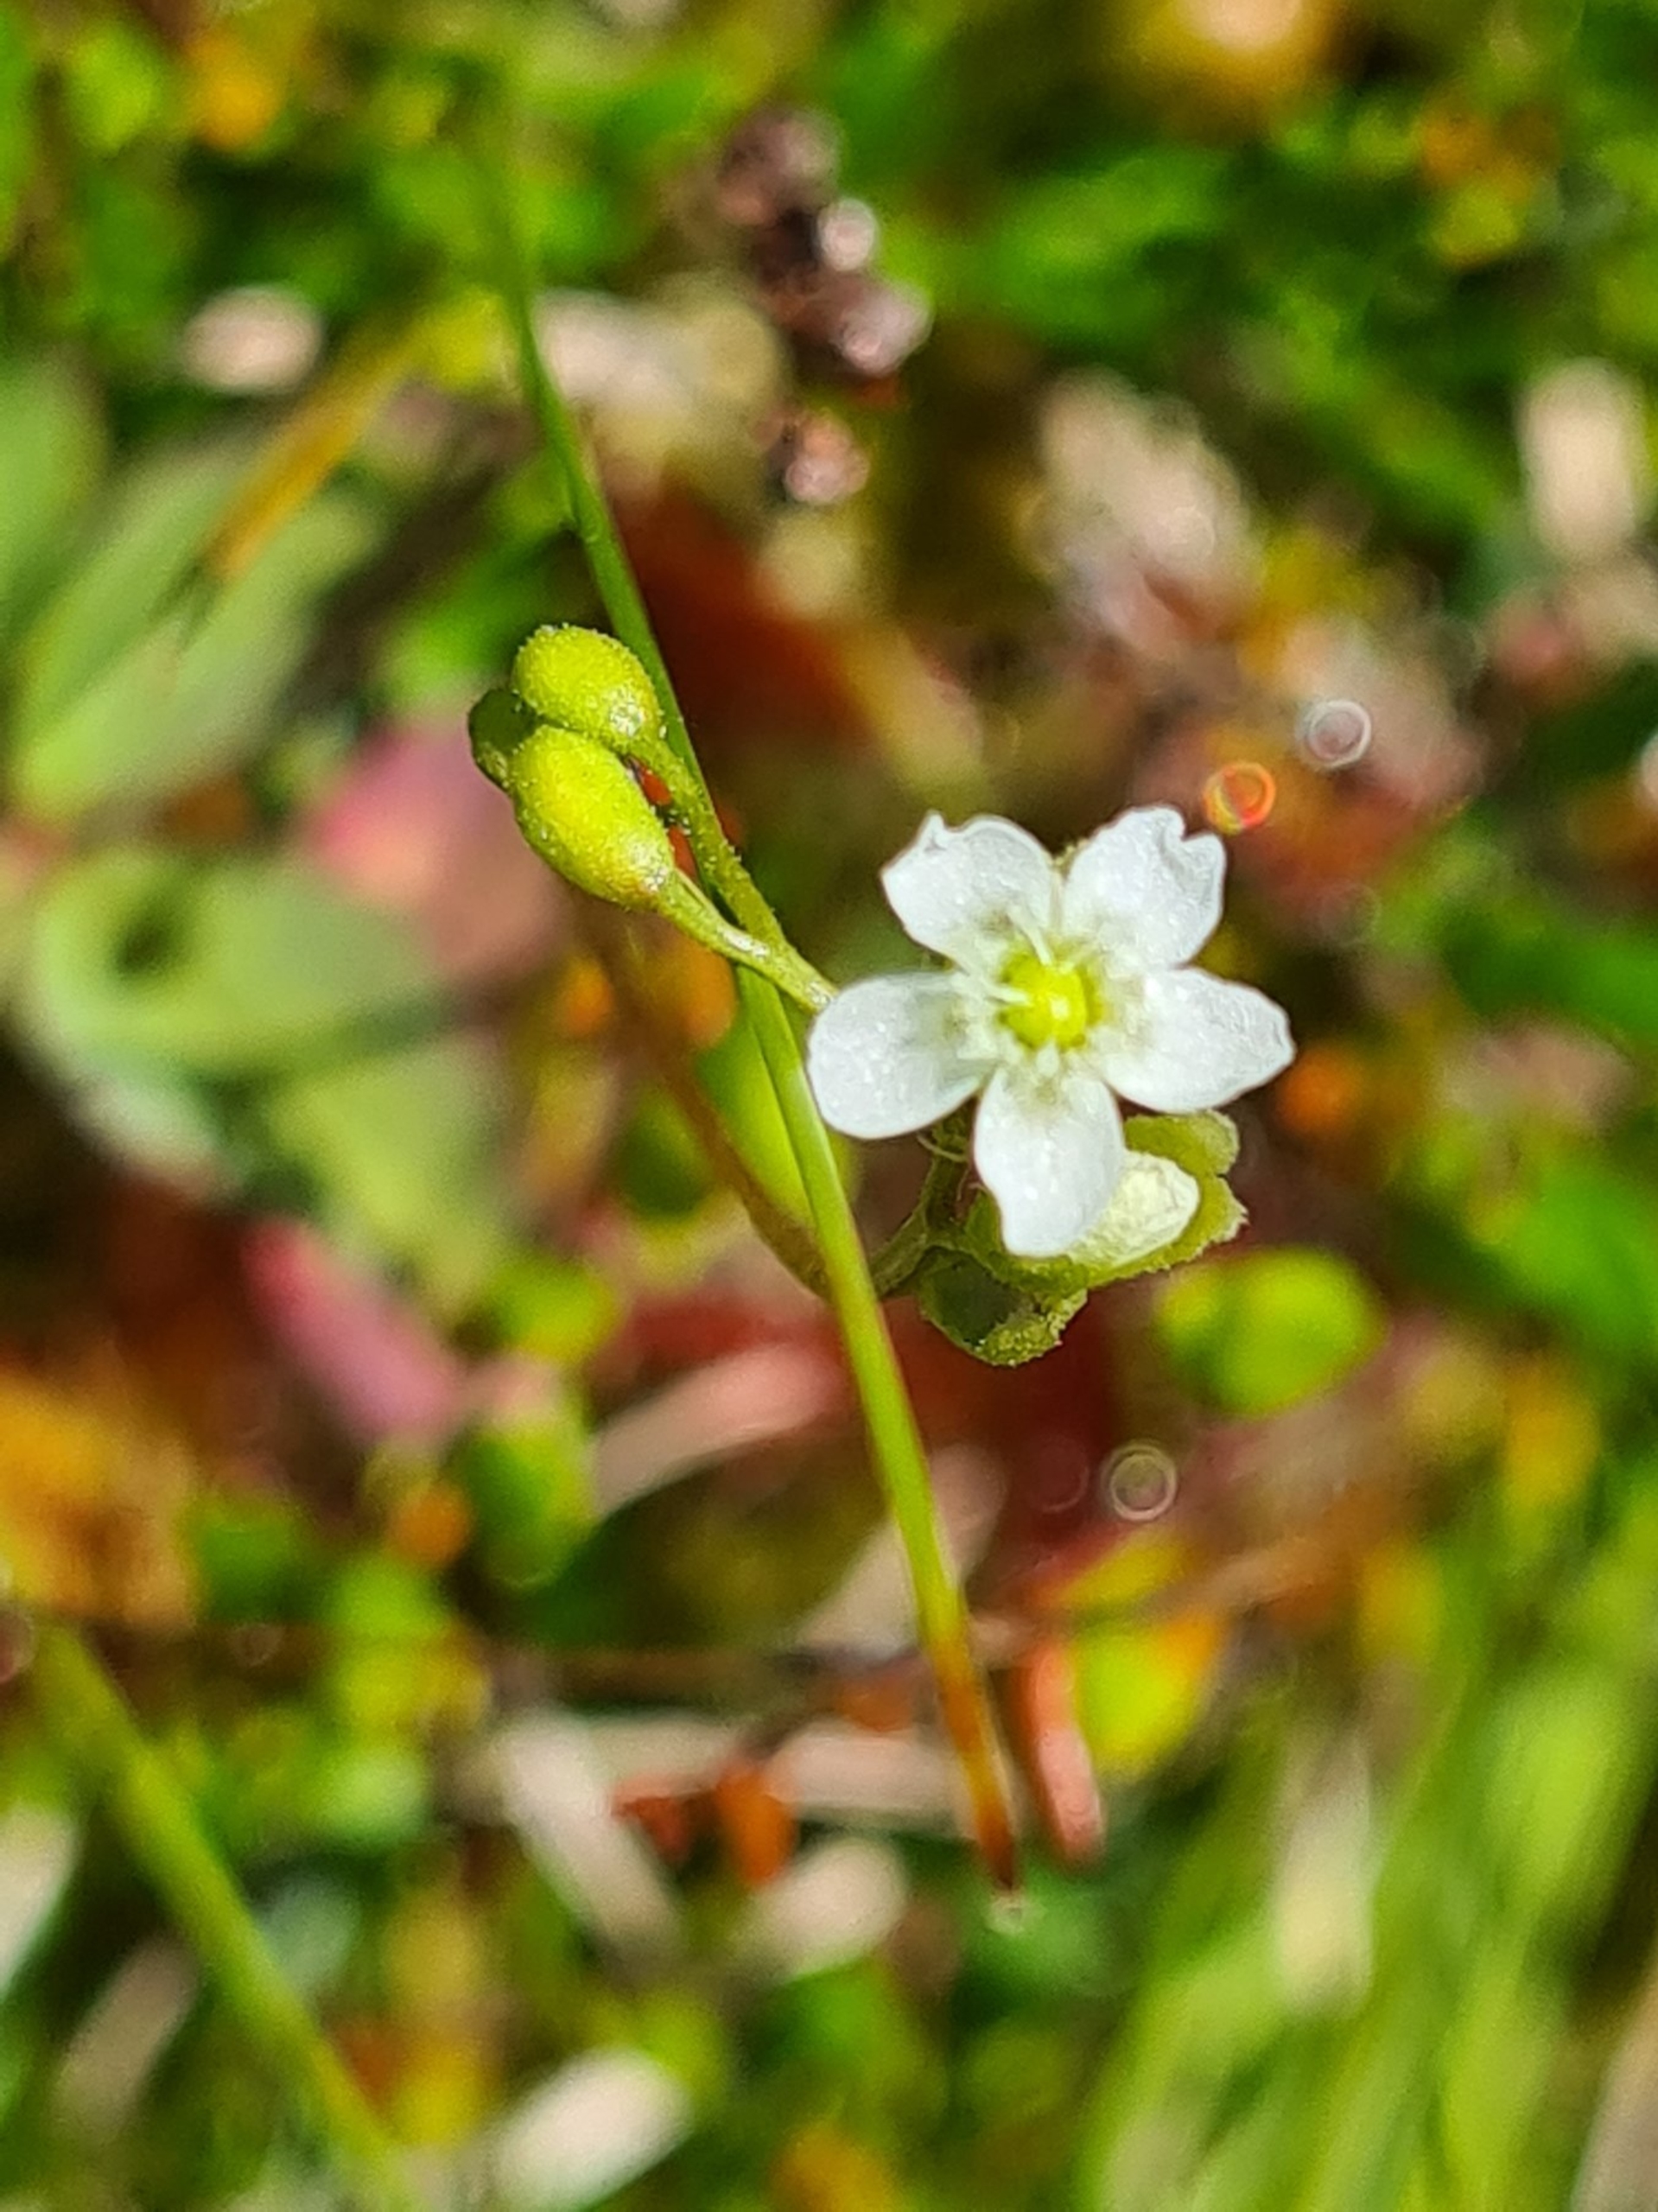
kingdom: Plantae
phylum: Tracheophyta
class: Magnoliopsida
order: Caryophyllales
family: Droseraceae
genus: Drosera
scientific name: Drosera rotundifolia
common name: Rundbladet soldug
